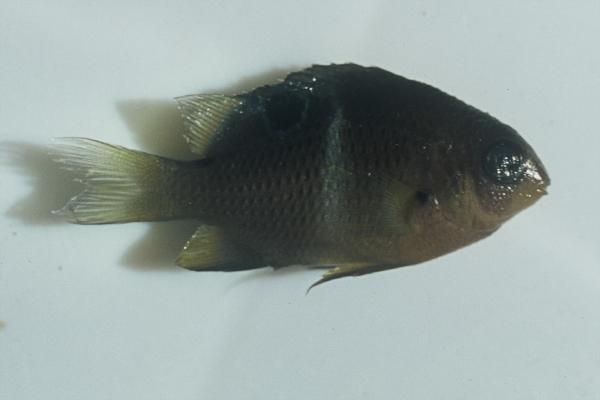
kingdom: Animalia
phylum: Chordata
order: Perciformes
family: Pomacentridae
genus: Plectroglyphidodon
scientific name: Plectroglyphidodon leucozonus
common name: White-band damsel
